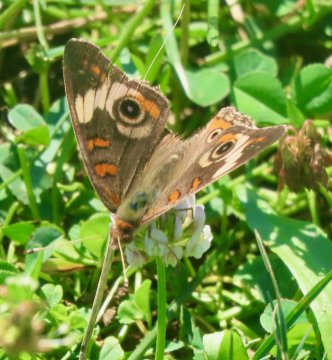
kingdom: Animalia
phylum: Arthropoda
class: Insecta
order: Lepidoptera
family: Nymphalidae
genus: Junonia
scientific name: Junonia coenia
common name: Common Buckeye
